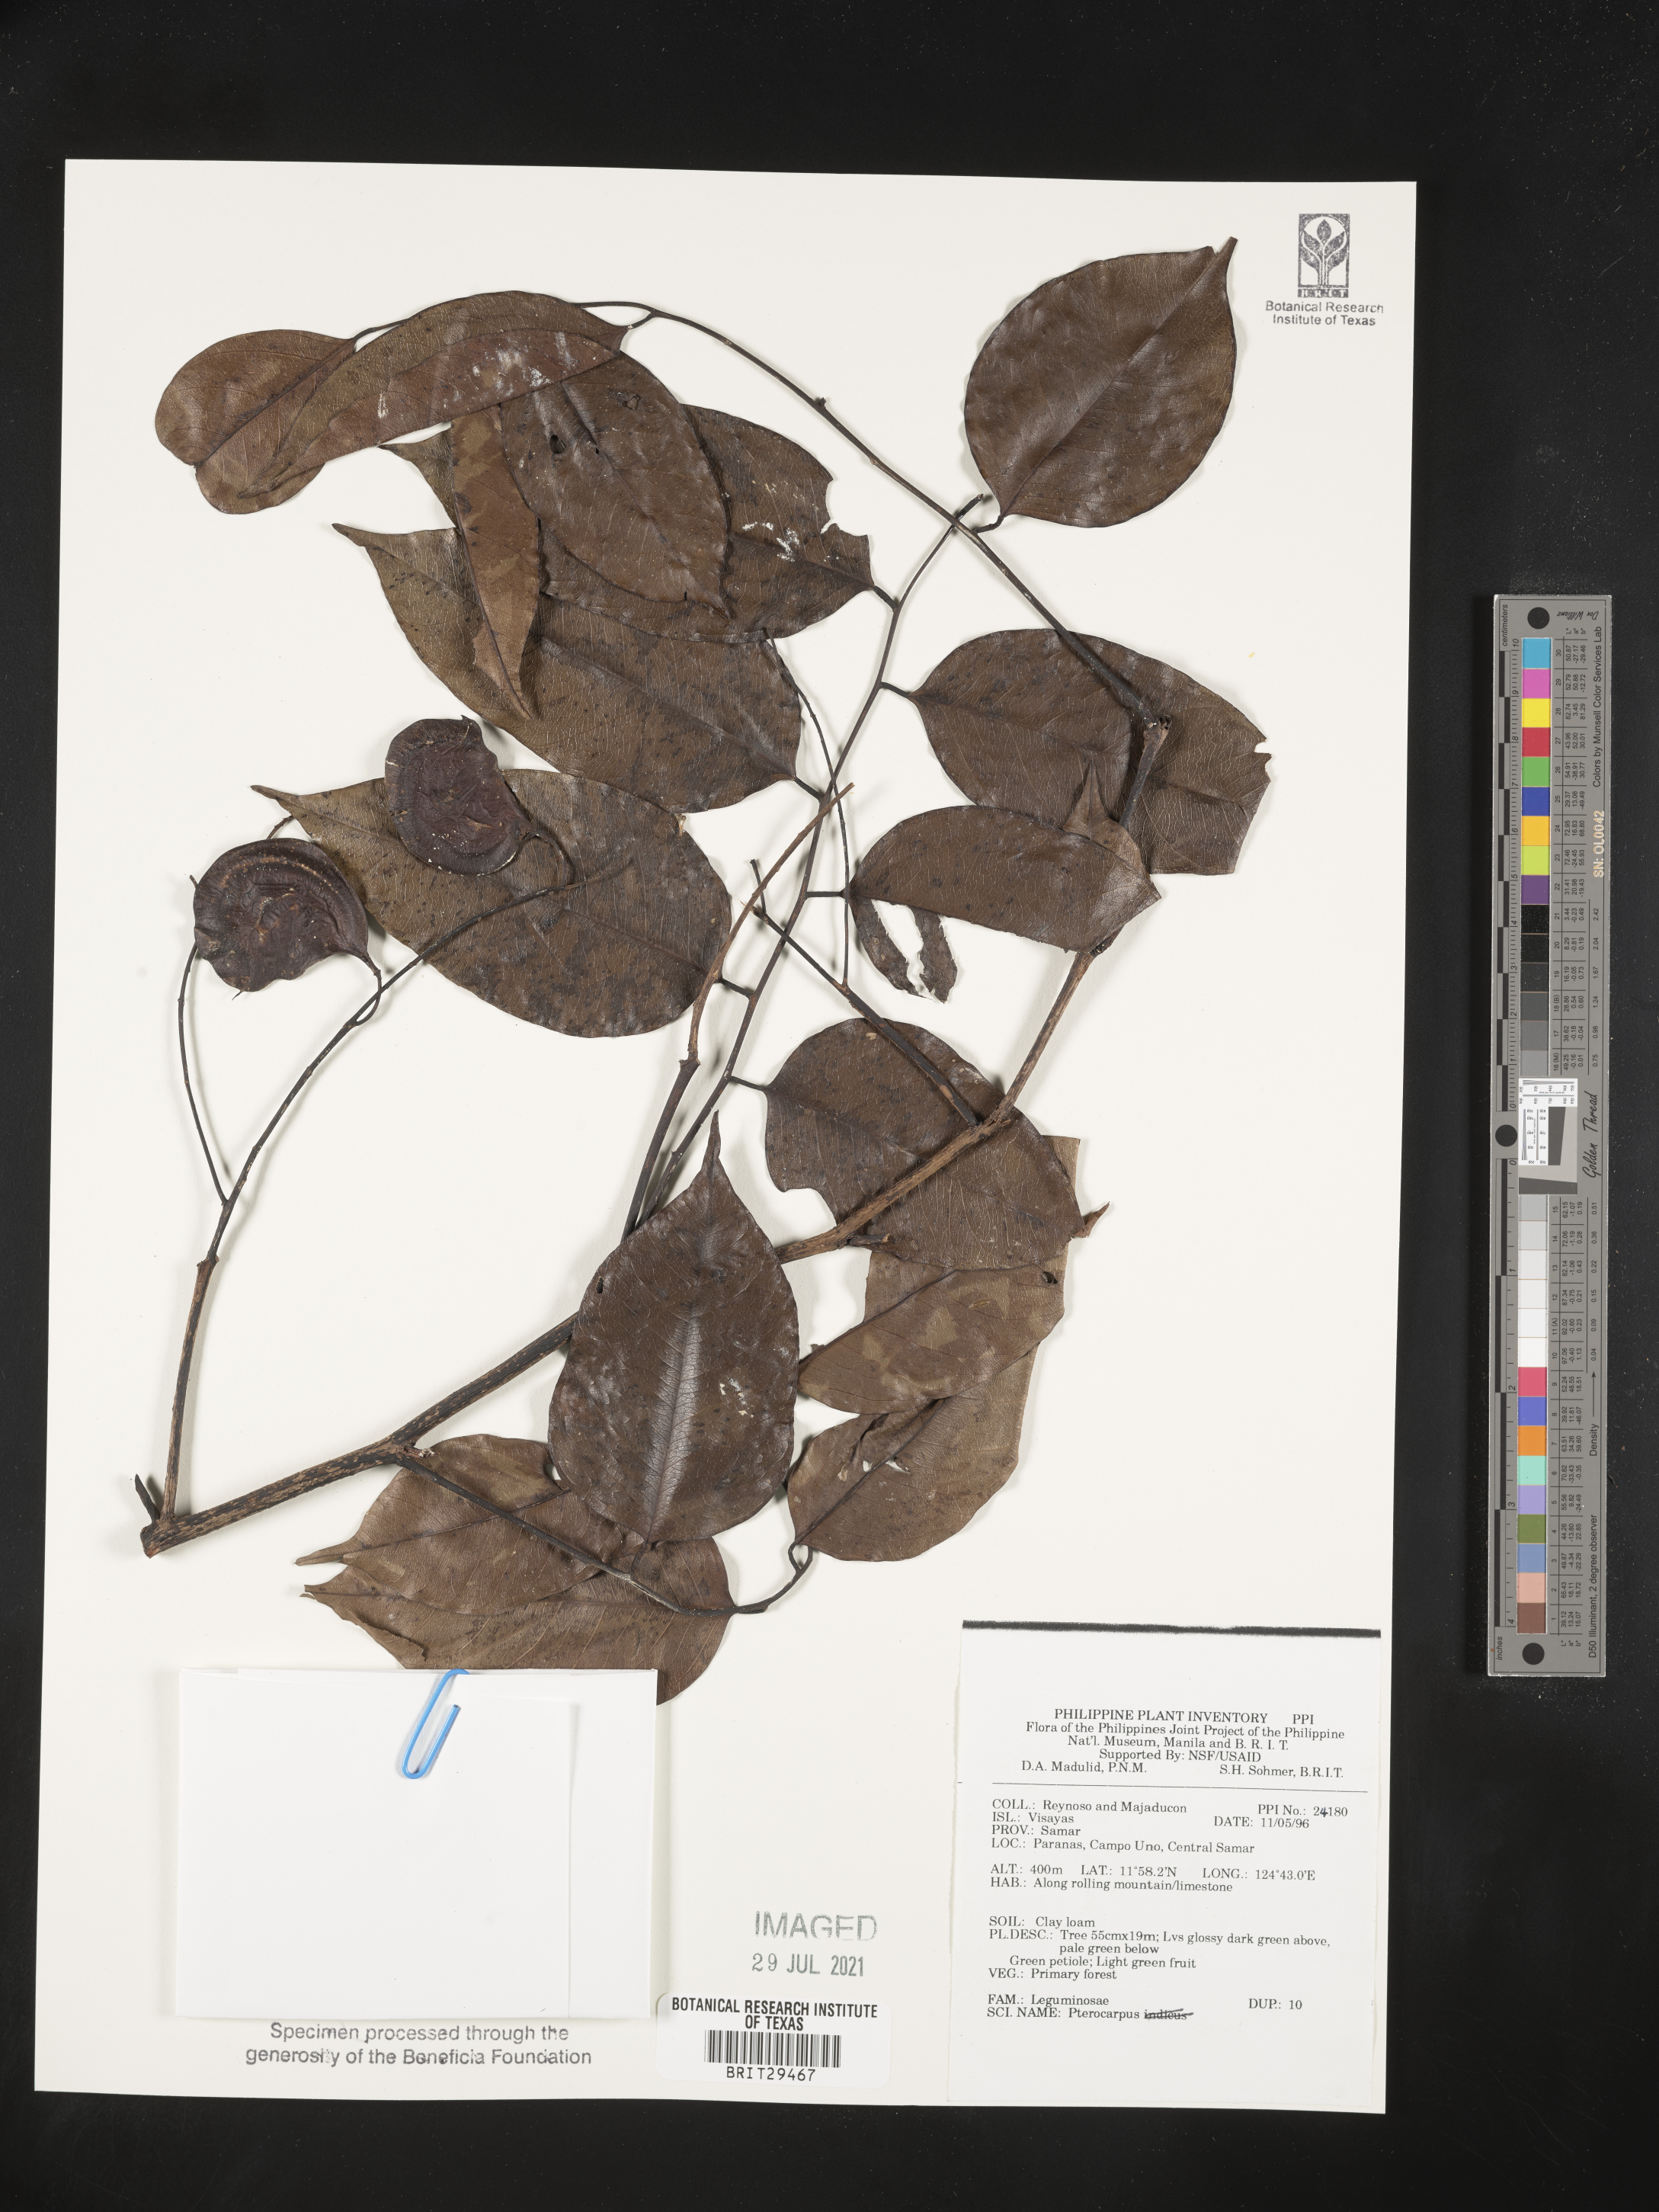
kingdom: Plantae
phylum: Tracheophyta
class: Magnoliopsida
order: Fabales
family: Fabaceae
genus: Pterocarpus
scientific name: Pterocarpus
